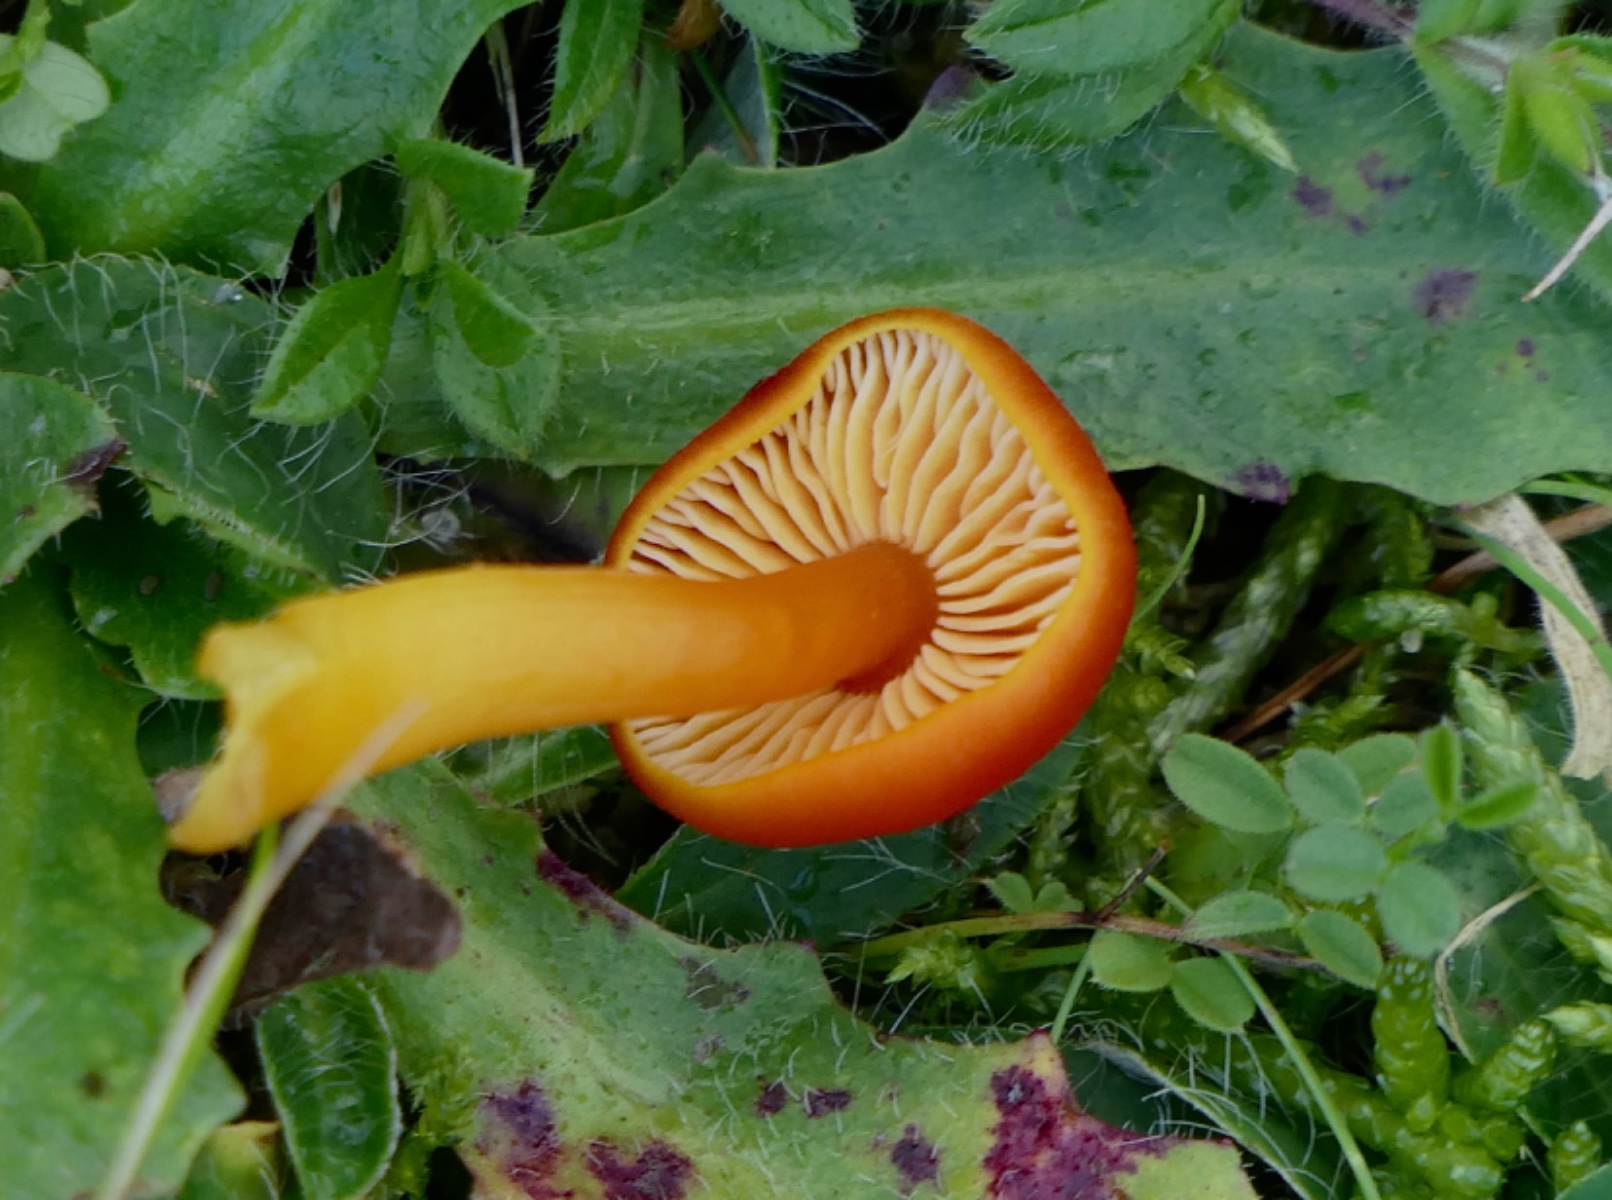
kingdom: Fungi
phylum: Basidiomycota
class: Agaricomycetes
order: Agaricales
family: Hygrophoraceae
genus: Hygrocybe
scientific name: Hygrocybe miniata
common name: mønje-vokshat
